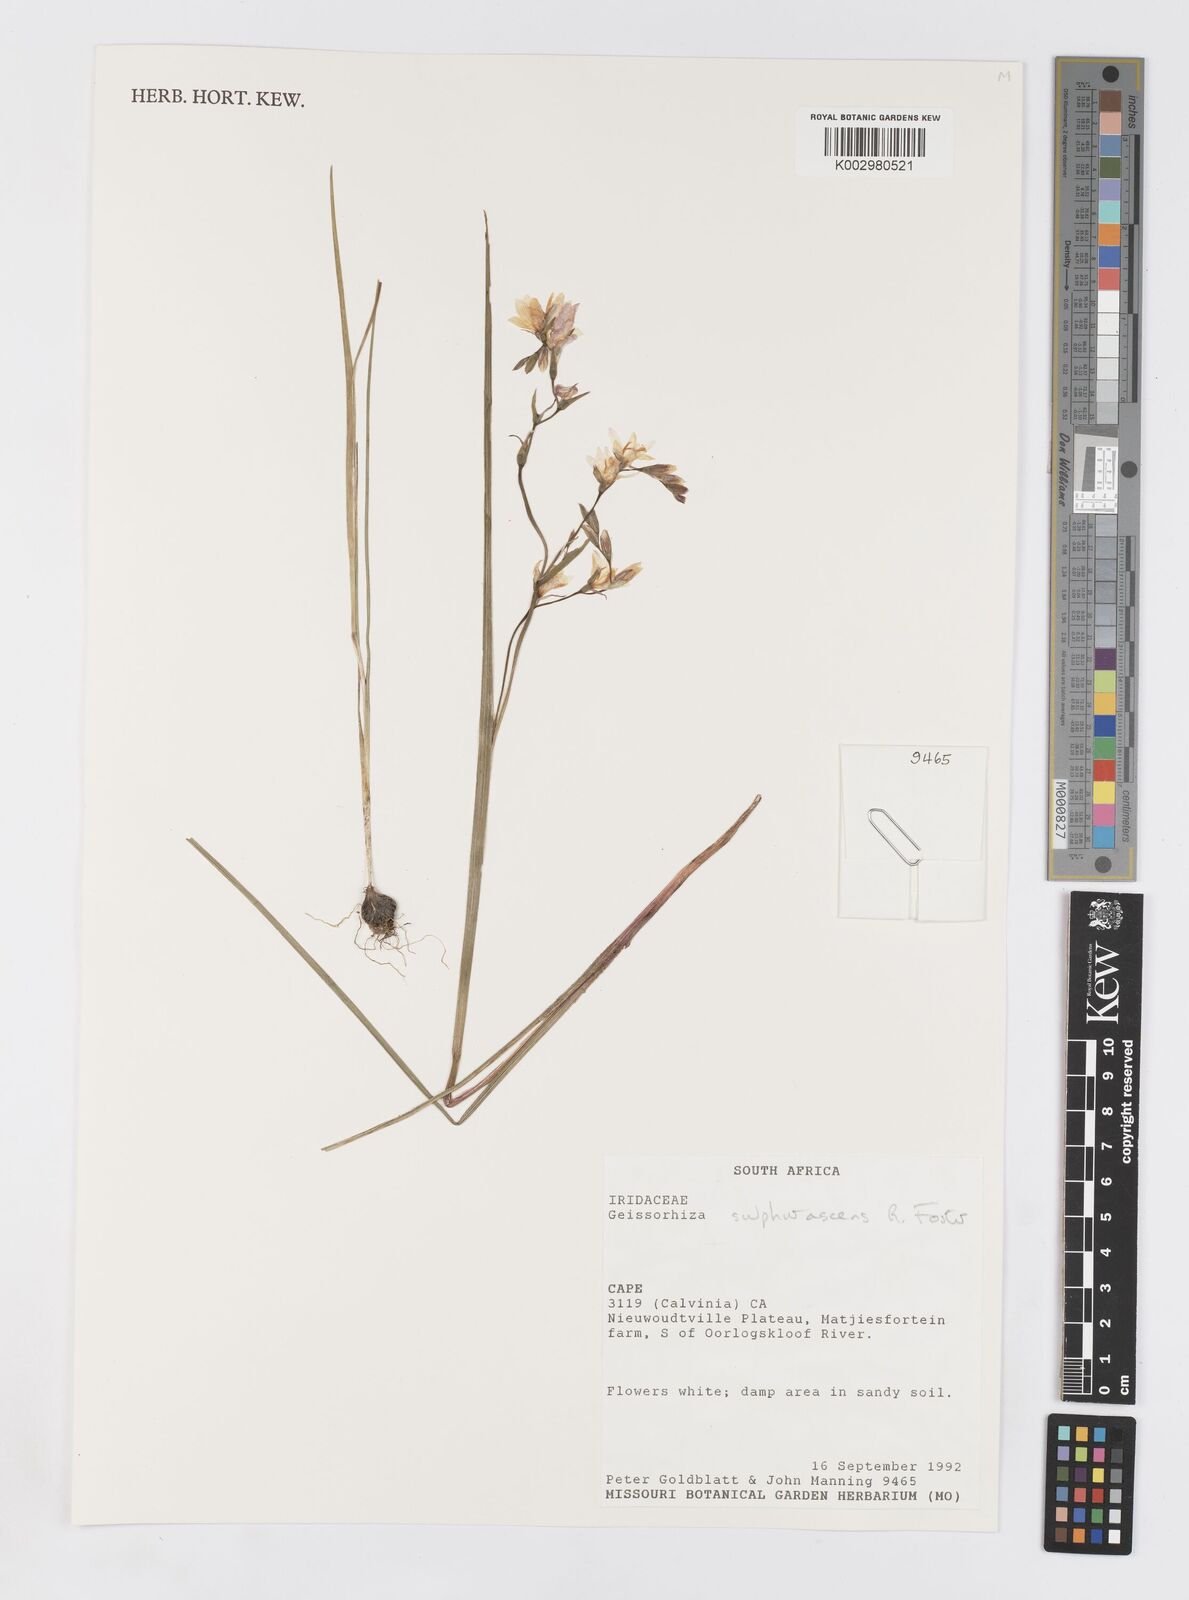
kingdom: Plantae
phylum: Tracheophyta
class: Liliopsida
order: Asparagales
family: Iridaceae
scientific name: Iridaceae
